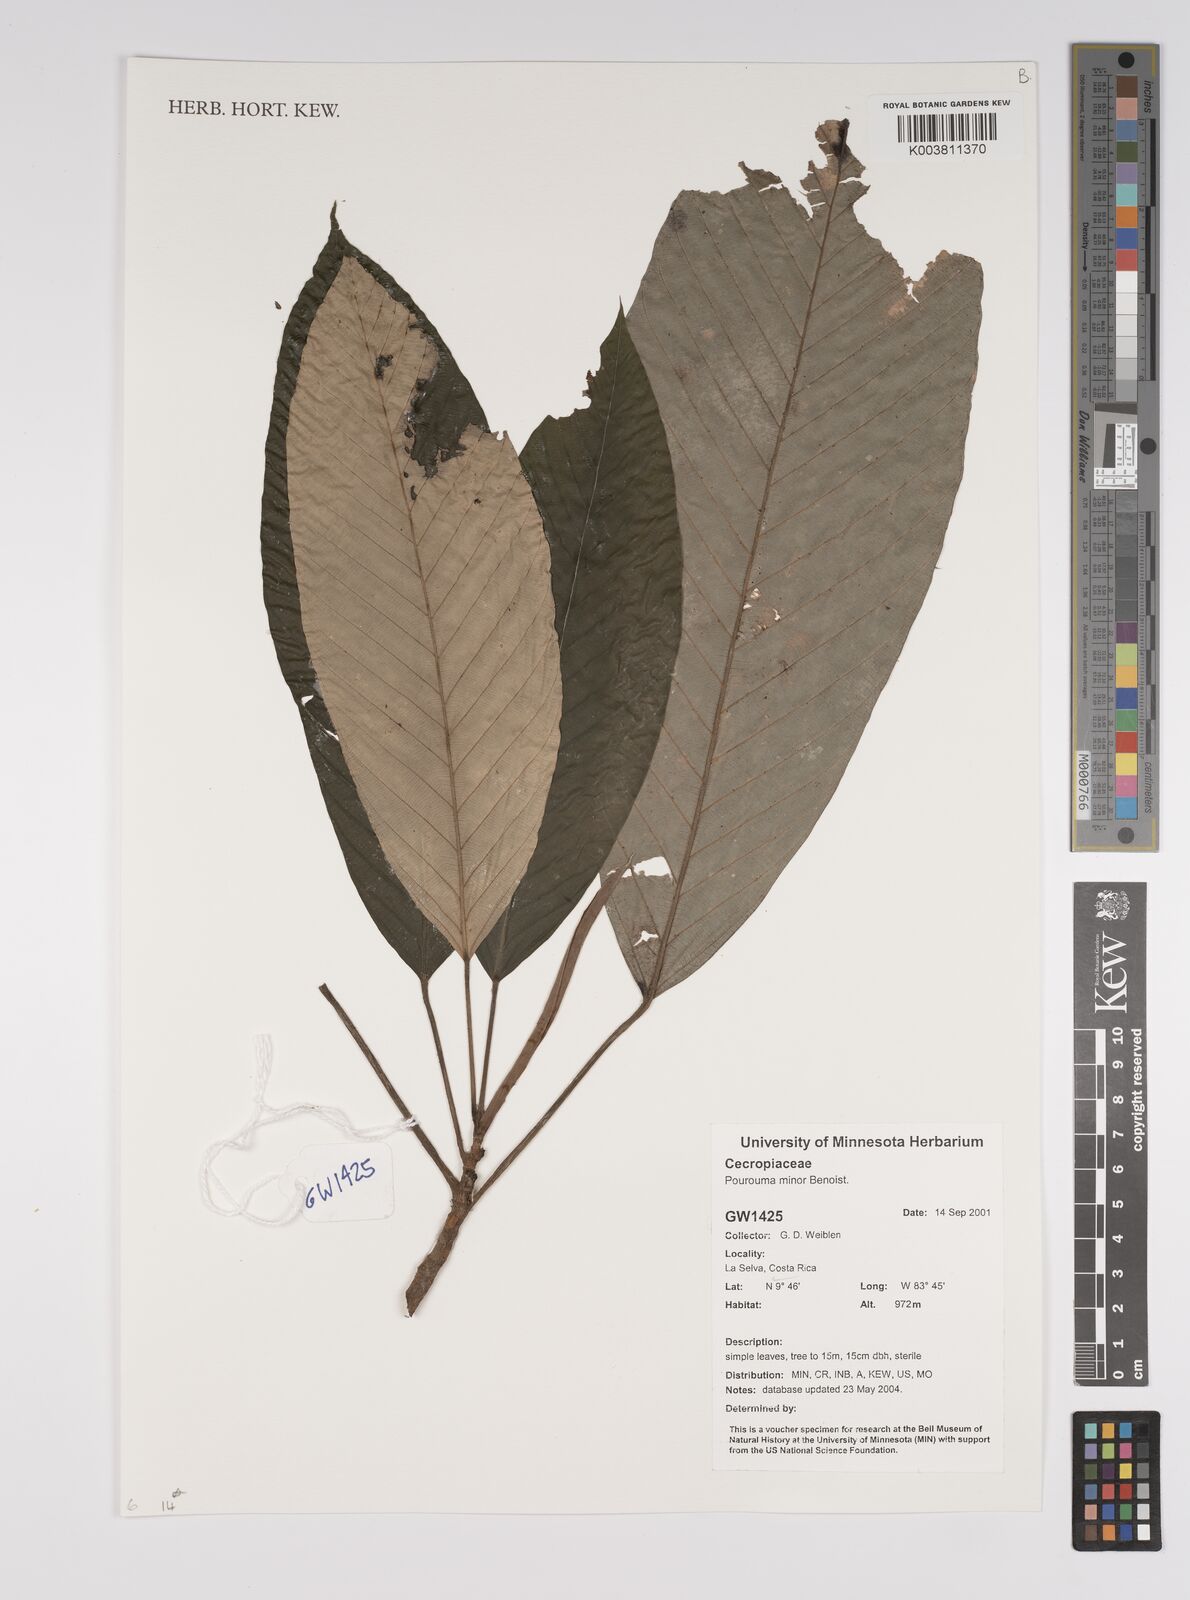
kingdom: Plantae
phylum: Tracheophyta
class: Magnoliopsida
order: Rosales
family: Urticaceae
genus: Pourouma
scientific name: Pourouma minor
